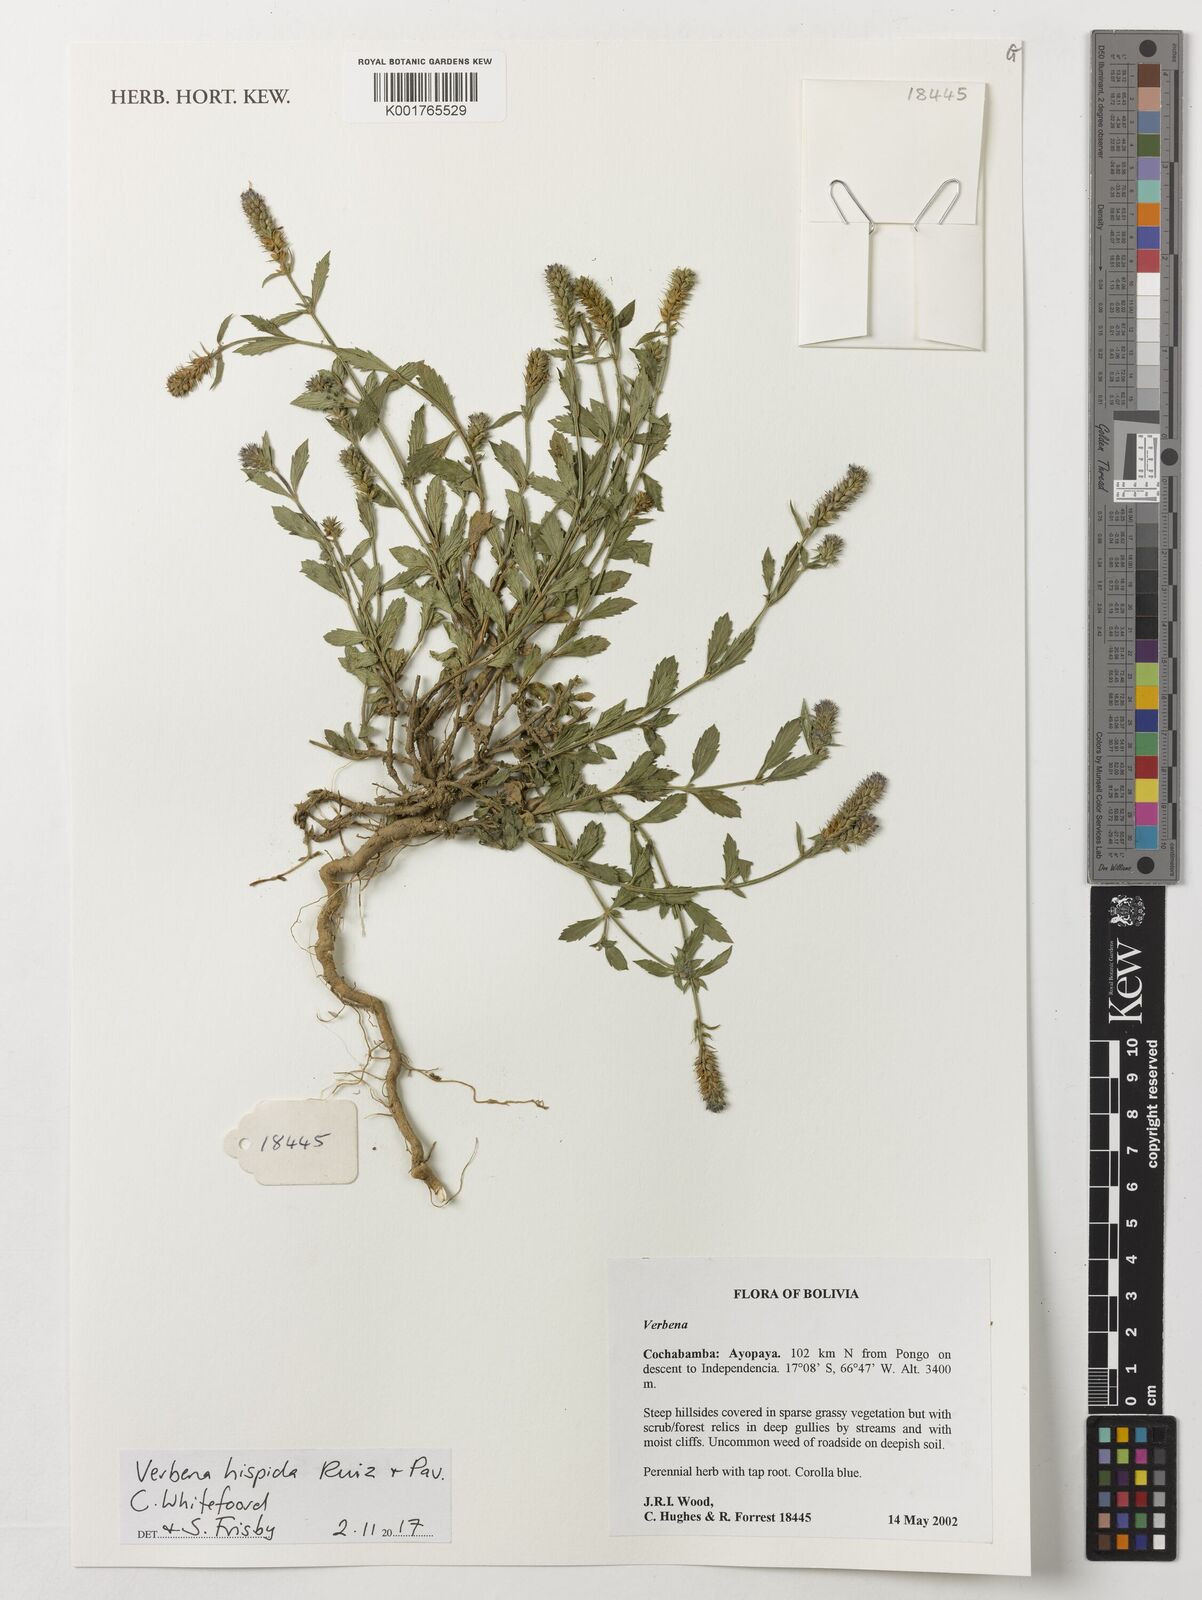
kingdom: Plantae
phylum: Tracheophyta
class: Magnoliopsida
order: Lamiales
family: Verbenaceae
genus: Verbena
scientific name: Verbena hispida
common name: Hairy vervain
